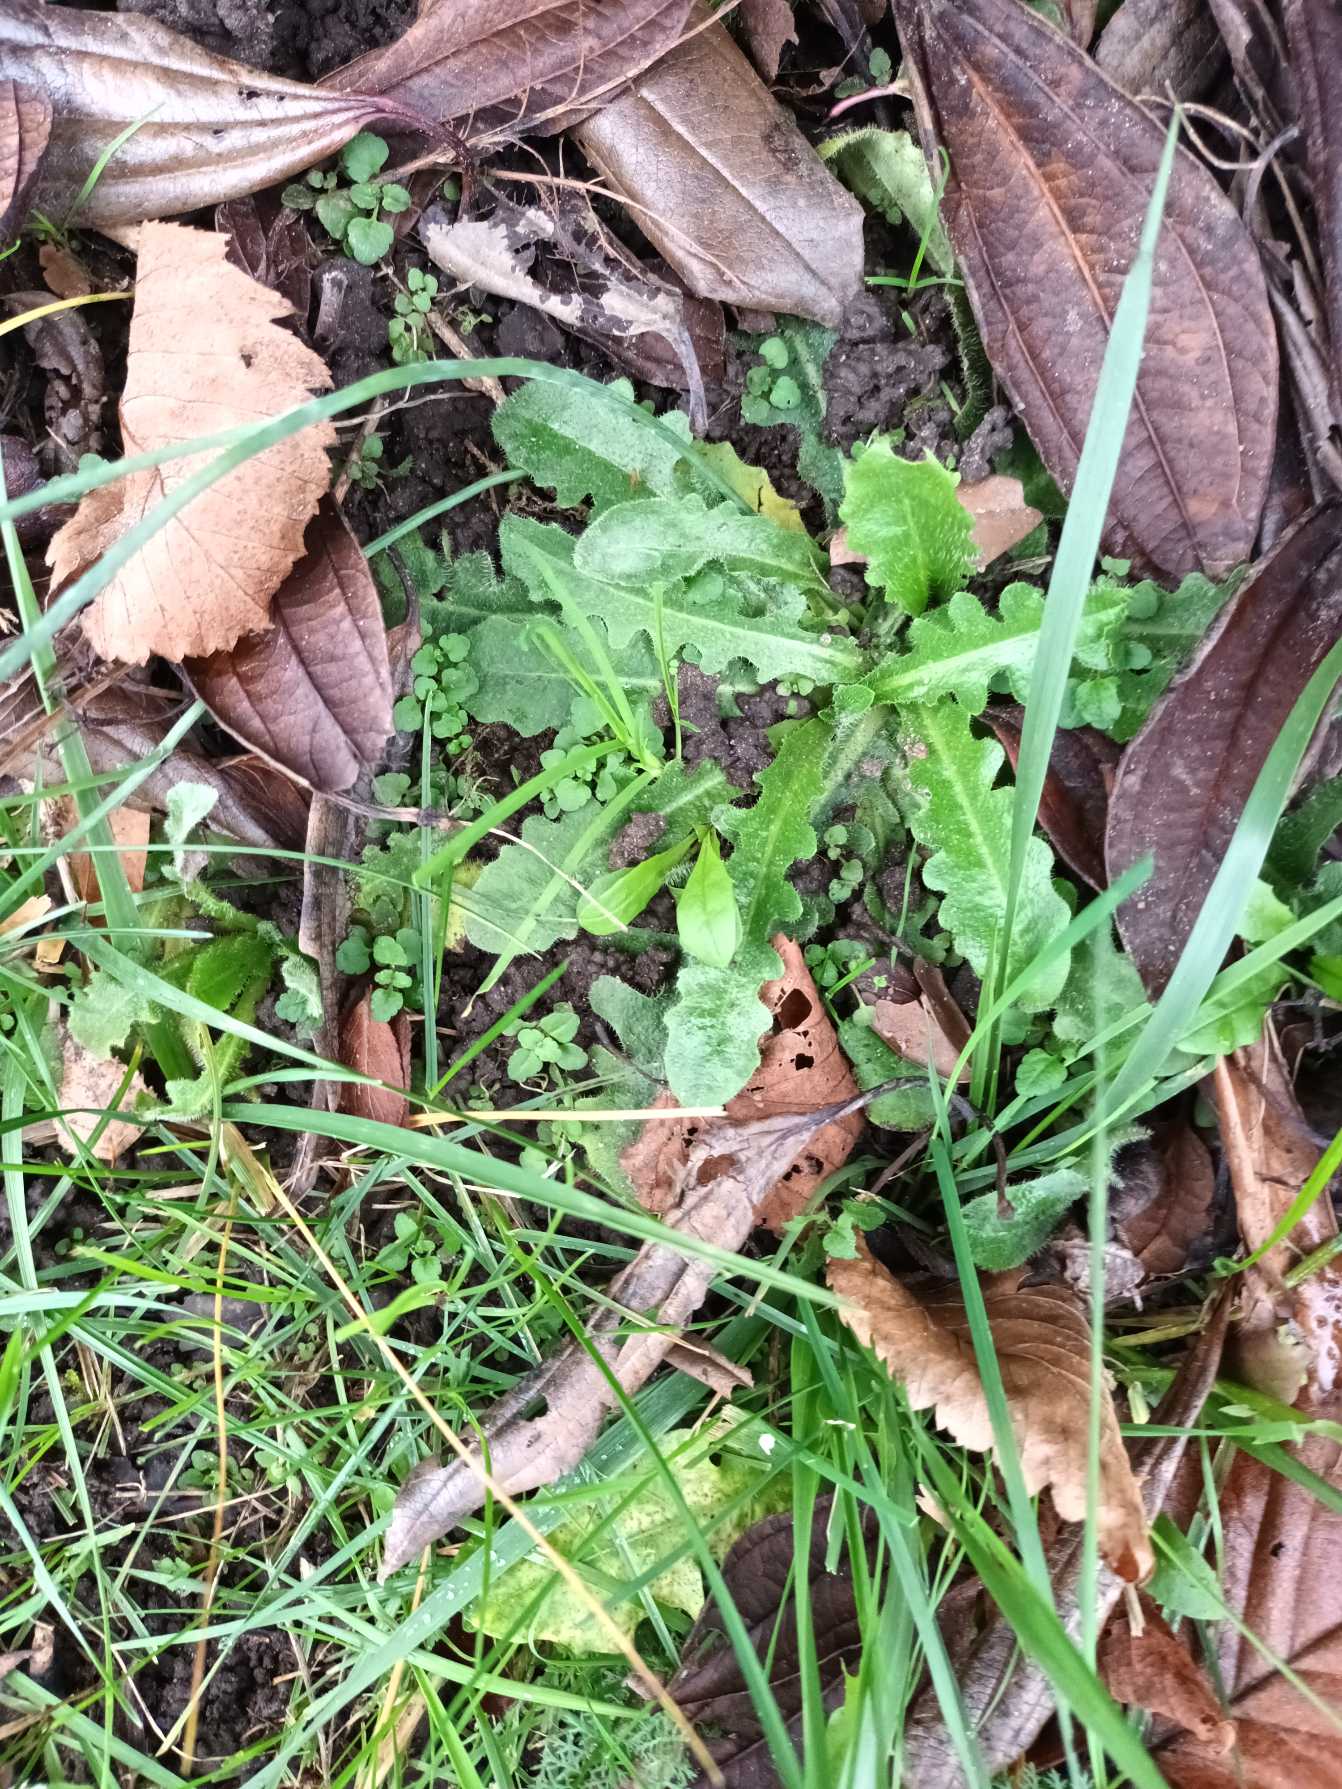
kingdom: Plantae
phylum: Tracheophyta
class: Magnoliopsida
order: Asterales
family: Asteraceae
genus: Hypochaeris
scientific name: Hypochaeris radicata
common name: Almindelig kongepen
